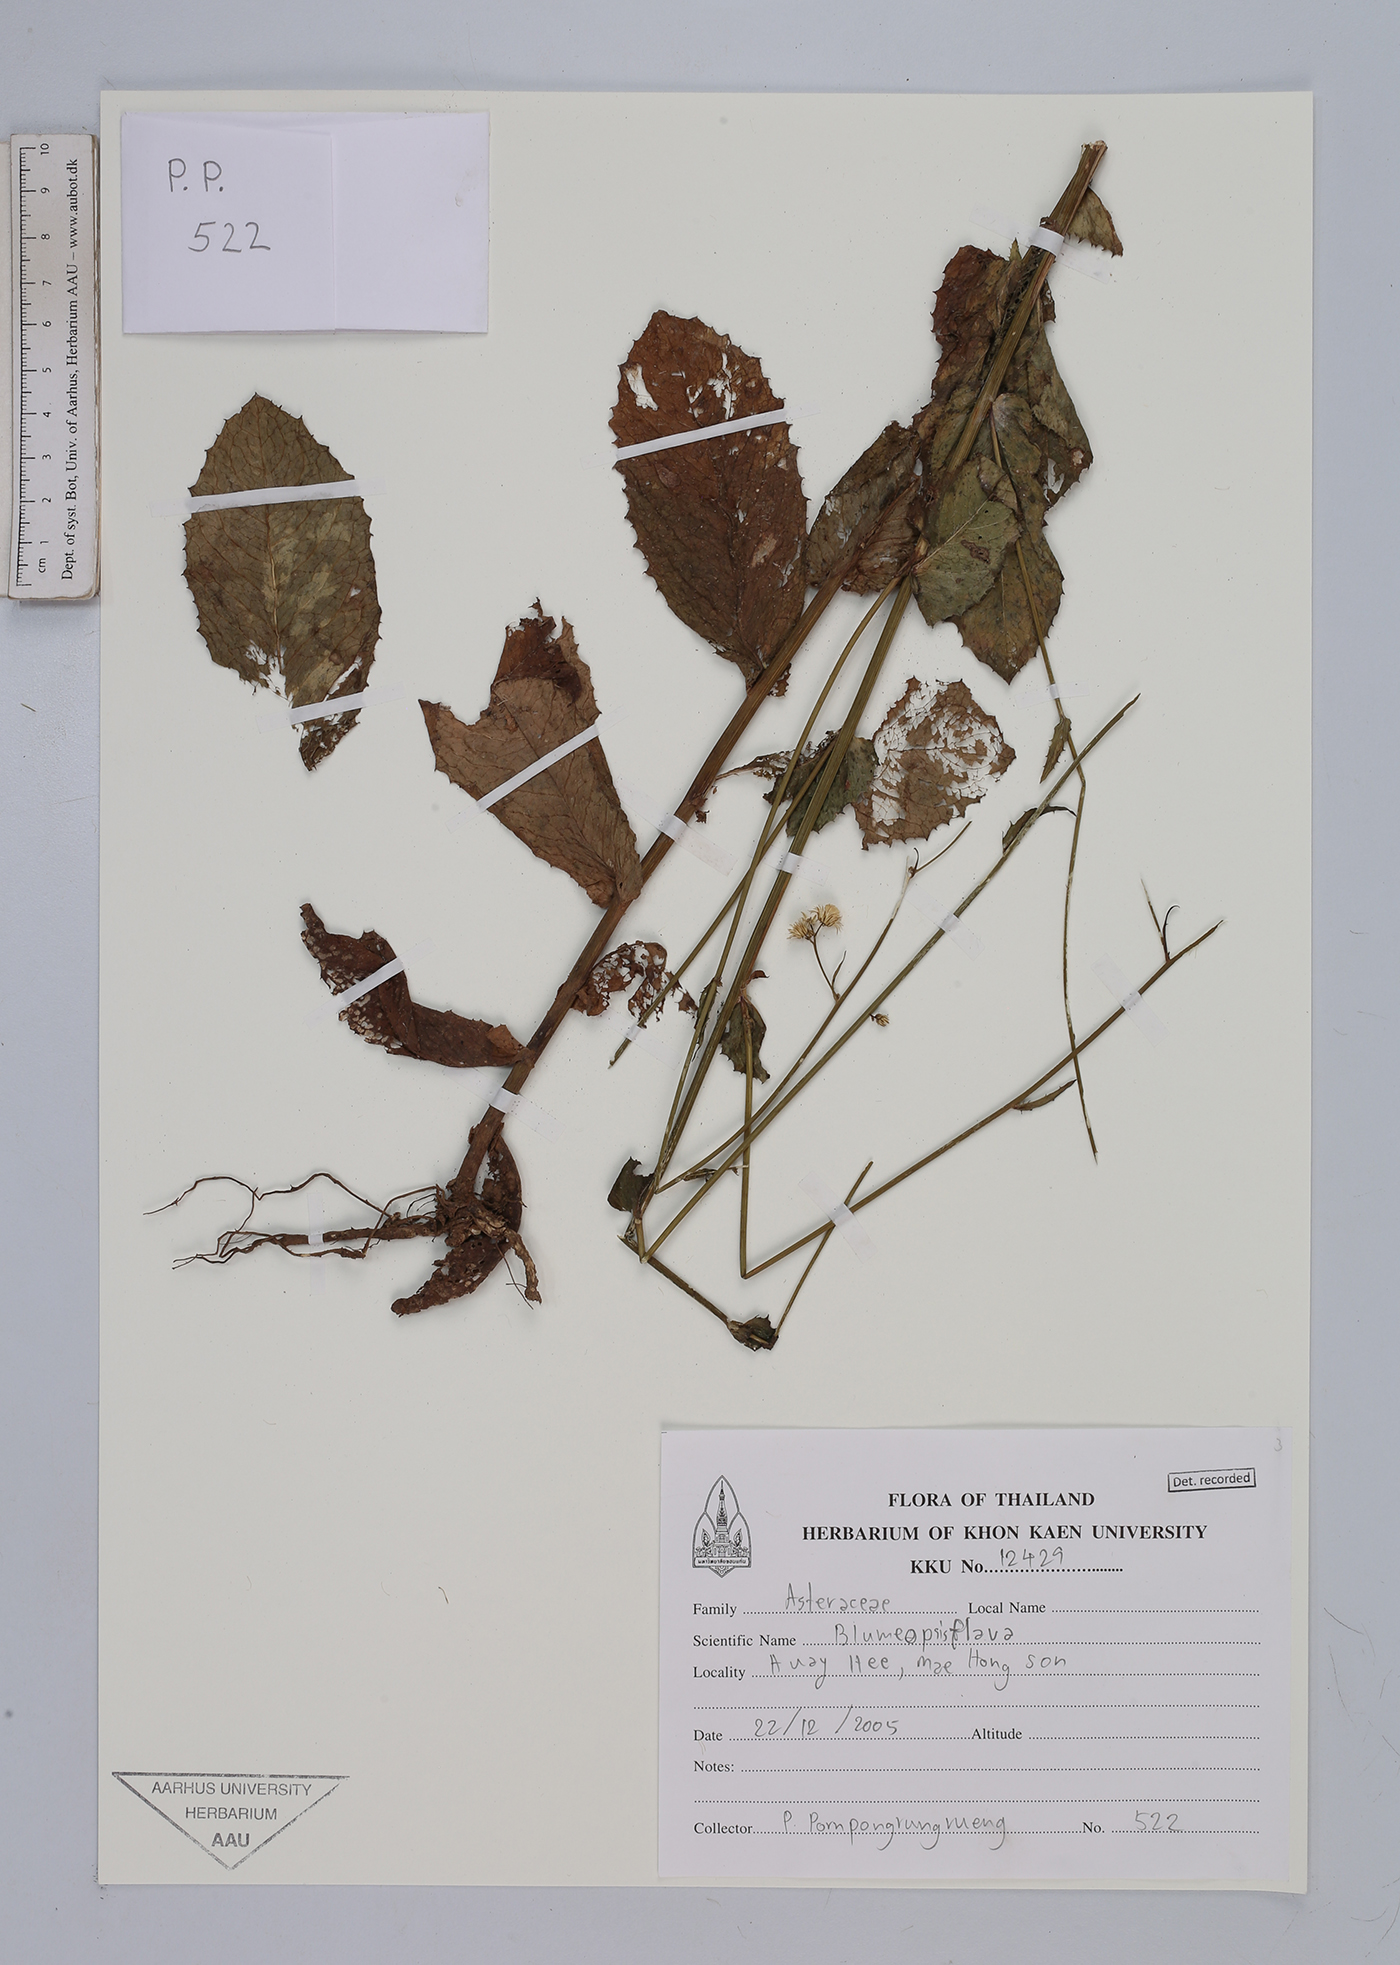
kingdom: Plantae
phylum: Tracheophyta
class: Magnoliopsida
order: Asterales
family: Asteraceae
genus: Blumeopsis
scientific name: Blumeopsis flava
